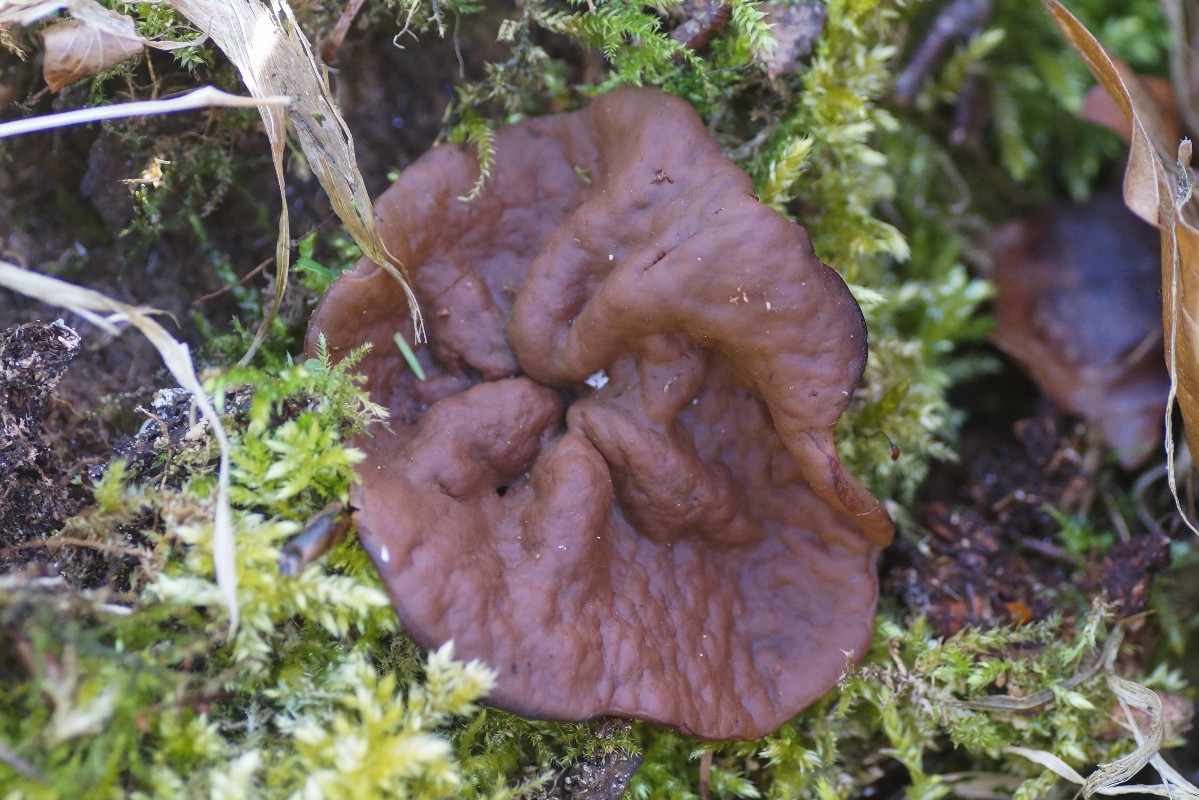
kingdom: Fungi
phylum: Ascomycota
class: Pezizomycetes
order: Pezizales
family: Discinaceae
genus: Discina
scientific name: Discina ancilis
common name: udbredt stenmorkel
